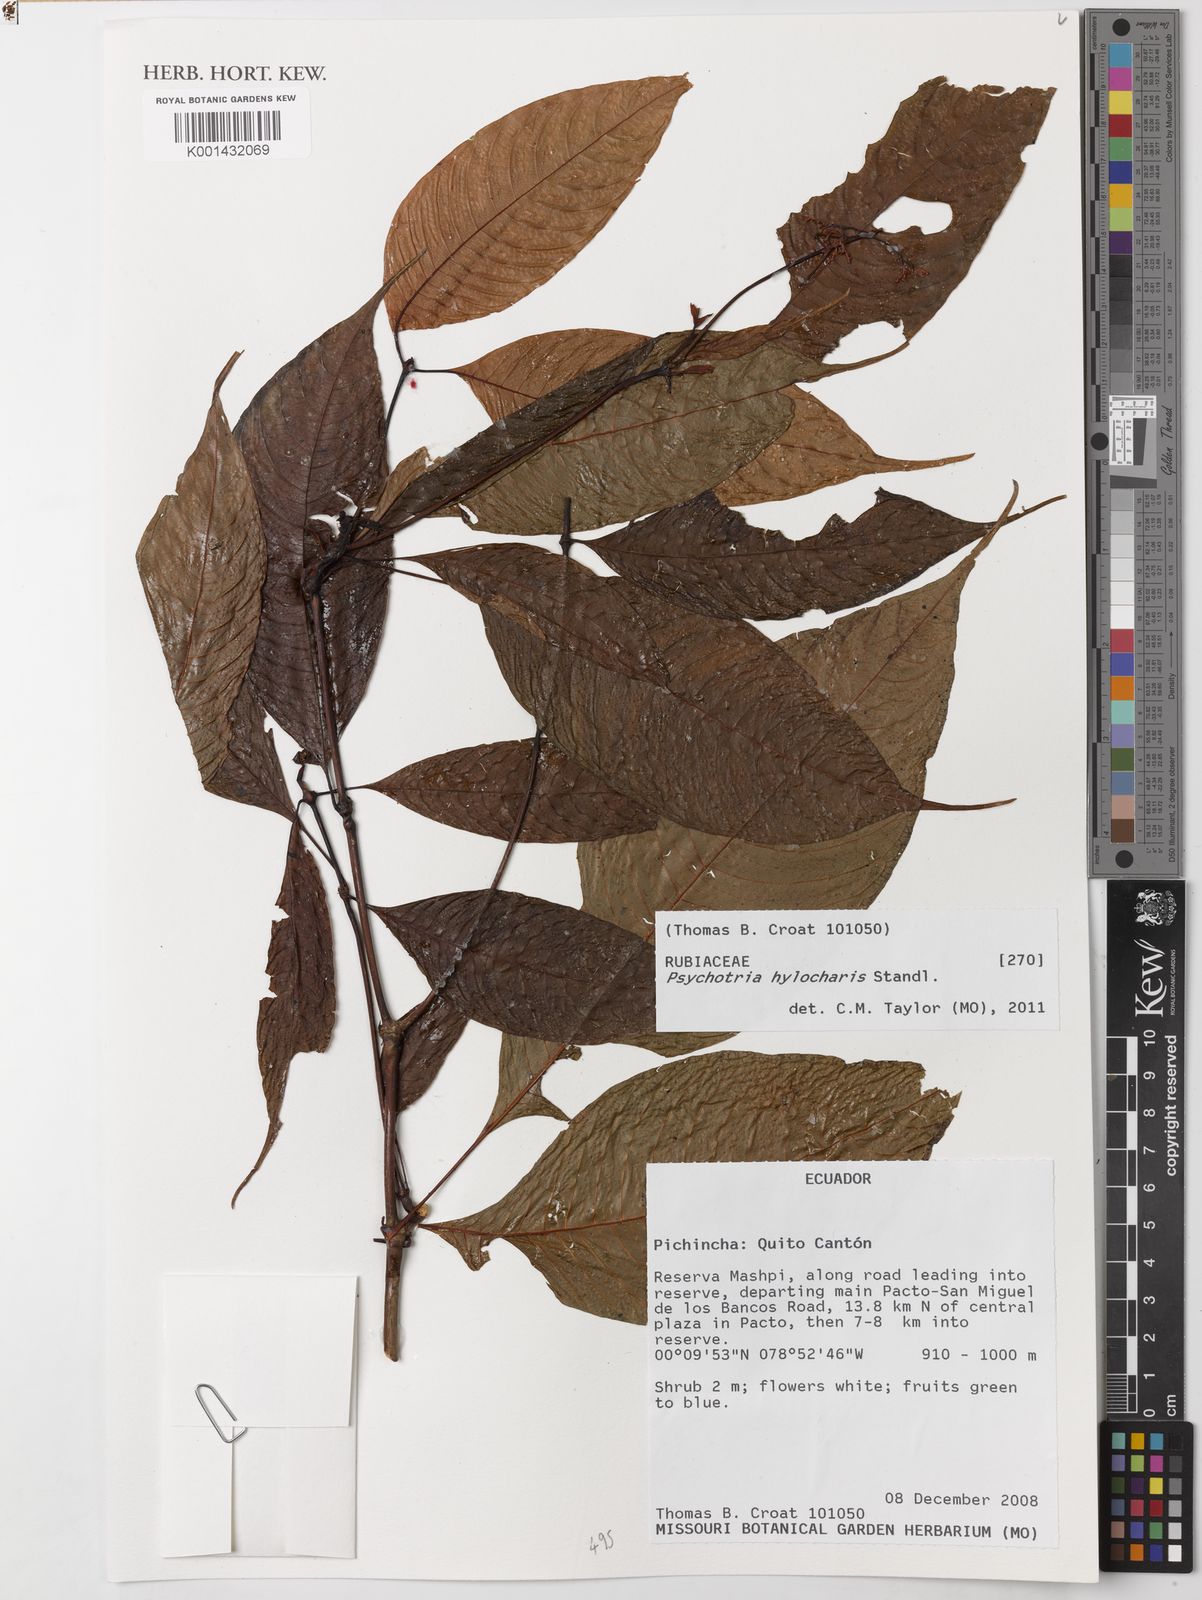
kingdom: Plantae
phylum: Tracheophyta
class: Magnoliopsida
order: Gentianales
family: Rubiaceae
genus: Psychotria
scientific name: Psychotria hylocharis
